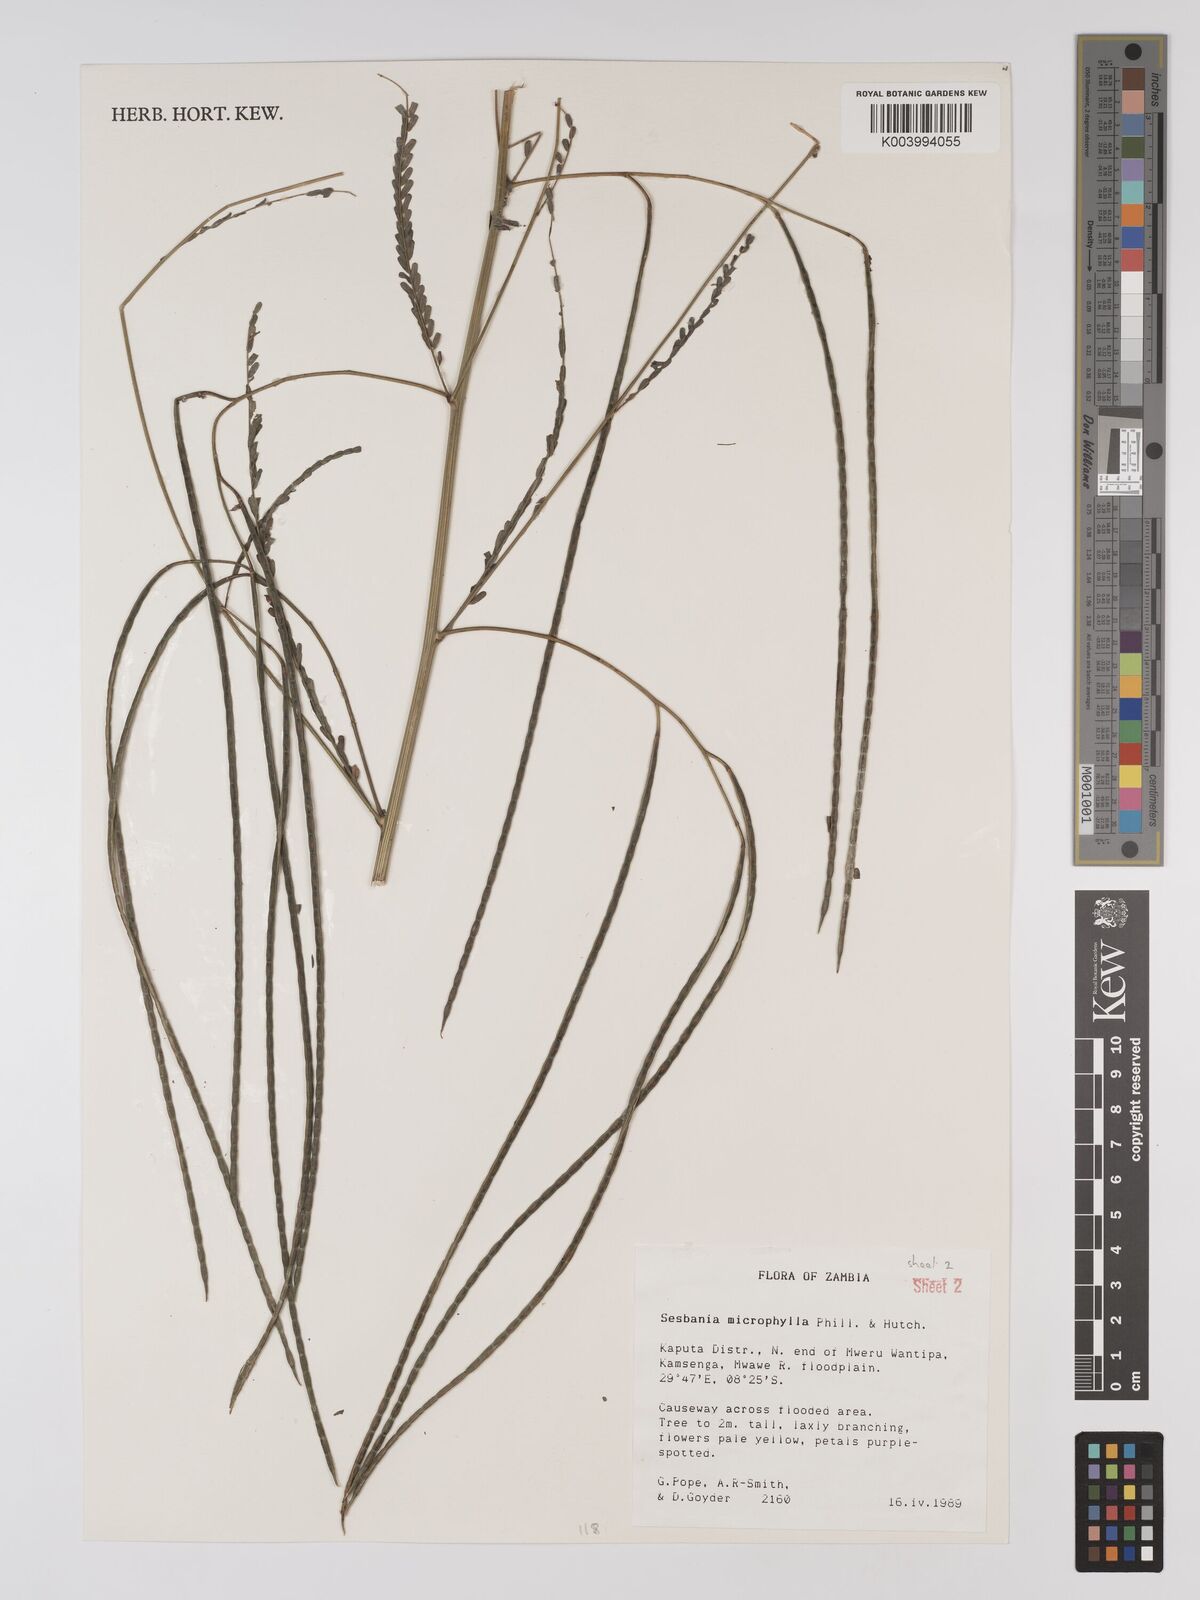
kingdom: Plantae
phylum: Tracheophyta
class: Magnoliopsida
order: Fabales
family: Fabaceae
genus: Sesbania
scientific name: Sesbania microphylla
